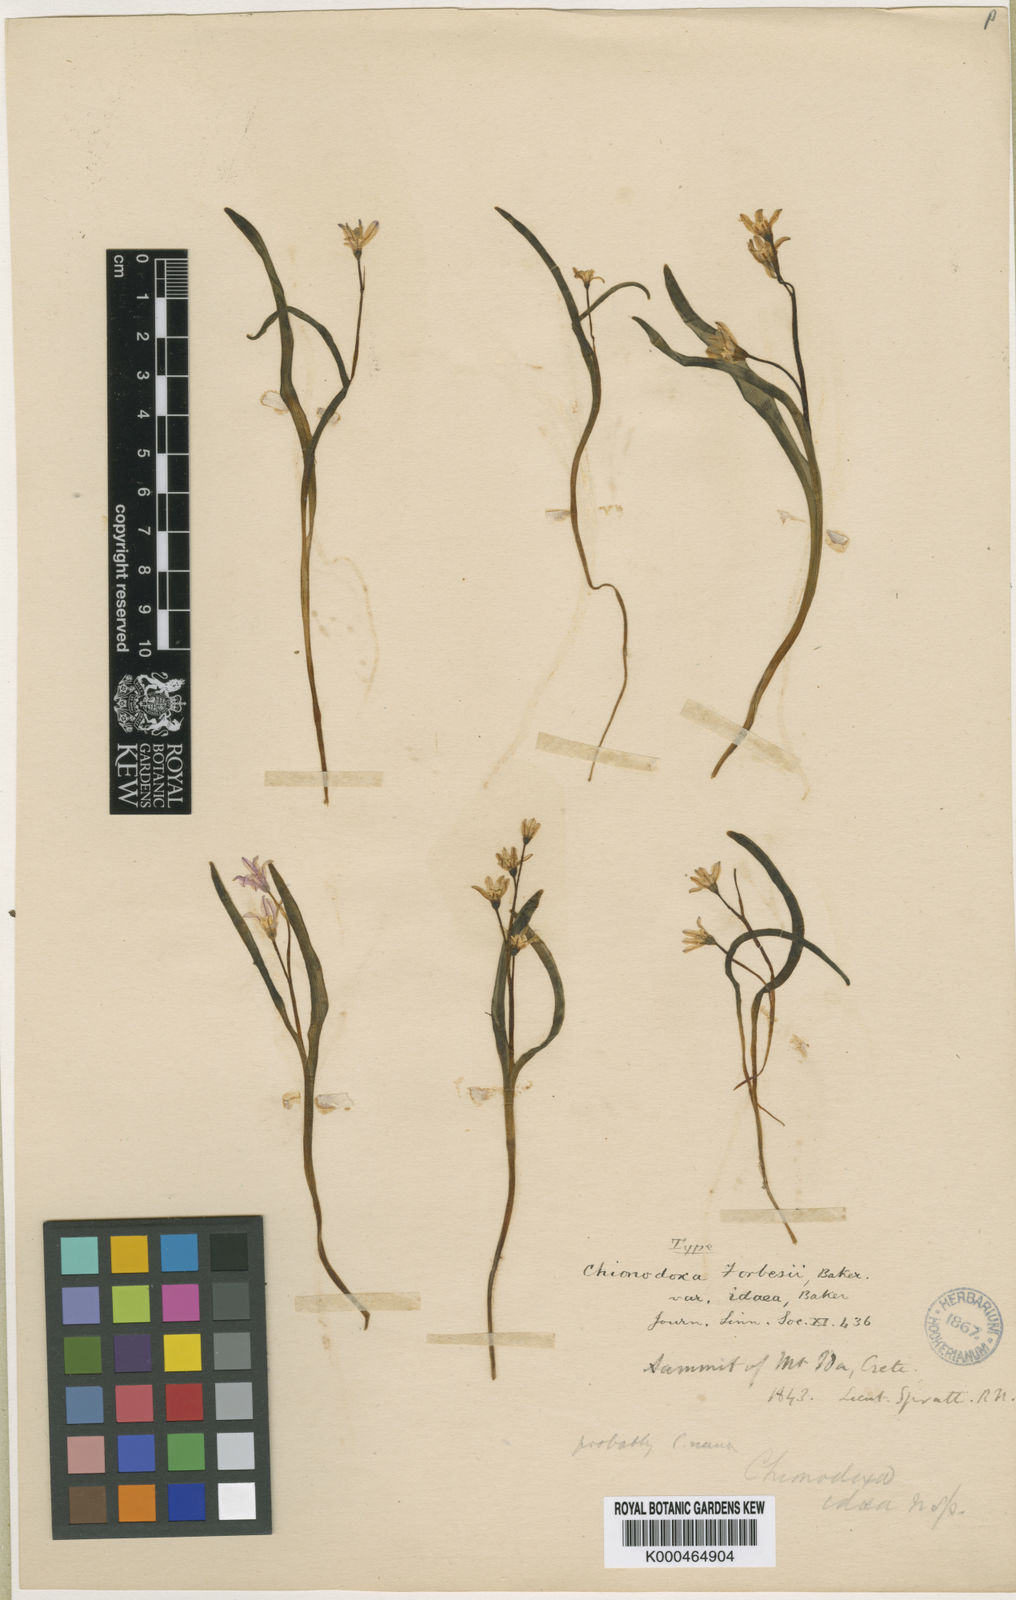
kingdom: Plantae
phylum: Tracheophyta
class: Liliopsida
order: Asparagales
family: Asparagaceae
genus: Scilla
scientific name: Scilla cretica
